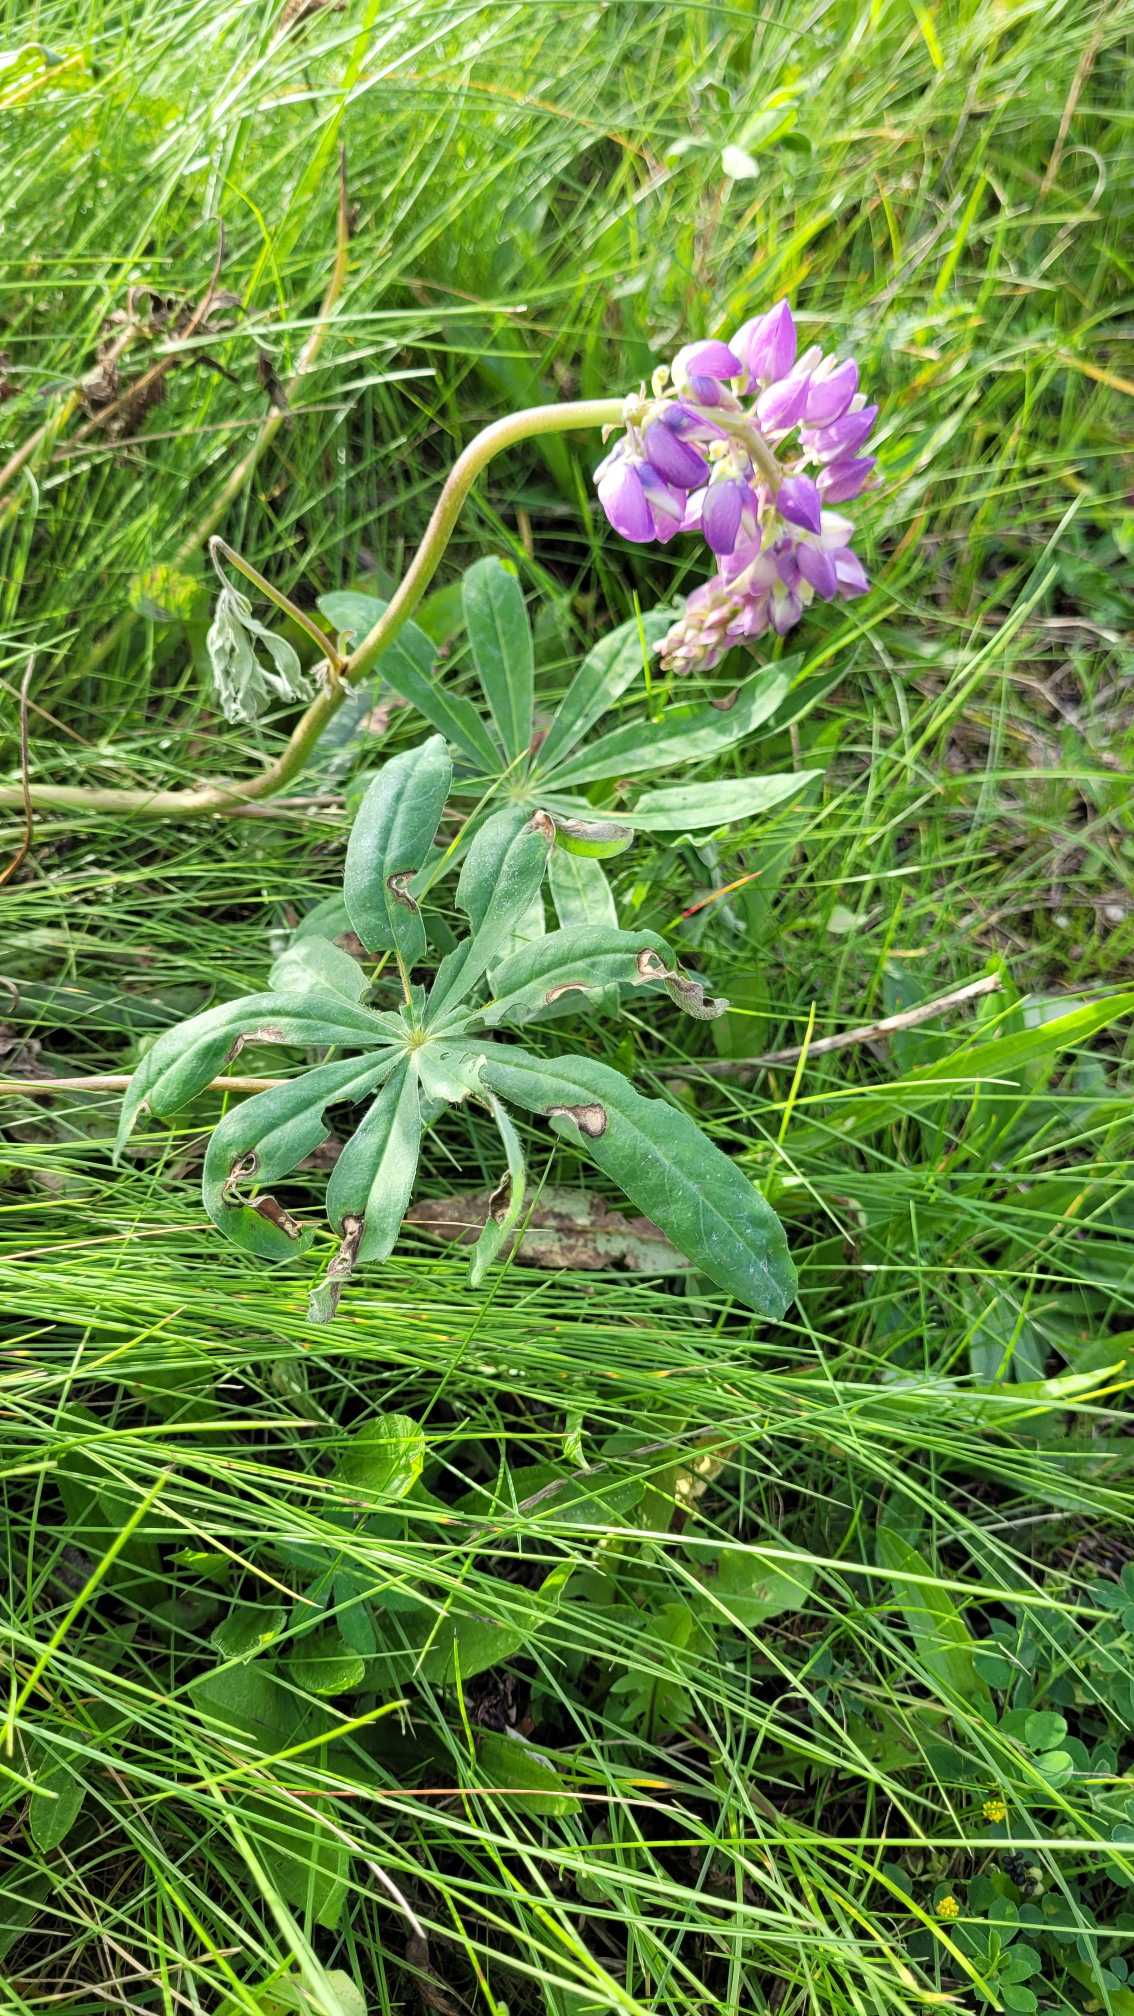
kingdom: Plantae
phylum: Tracheophyta
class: Magnoliopsida
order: Fabales
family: Fabaceae
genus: Lupinus
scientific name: Lupinus polyphyllus
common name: Mangebladet lupin
